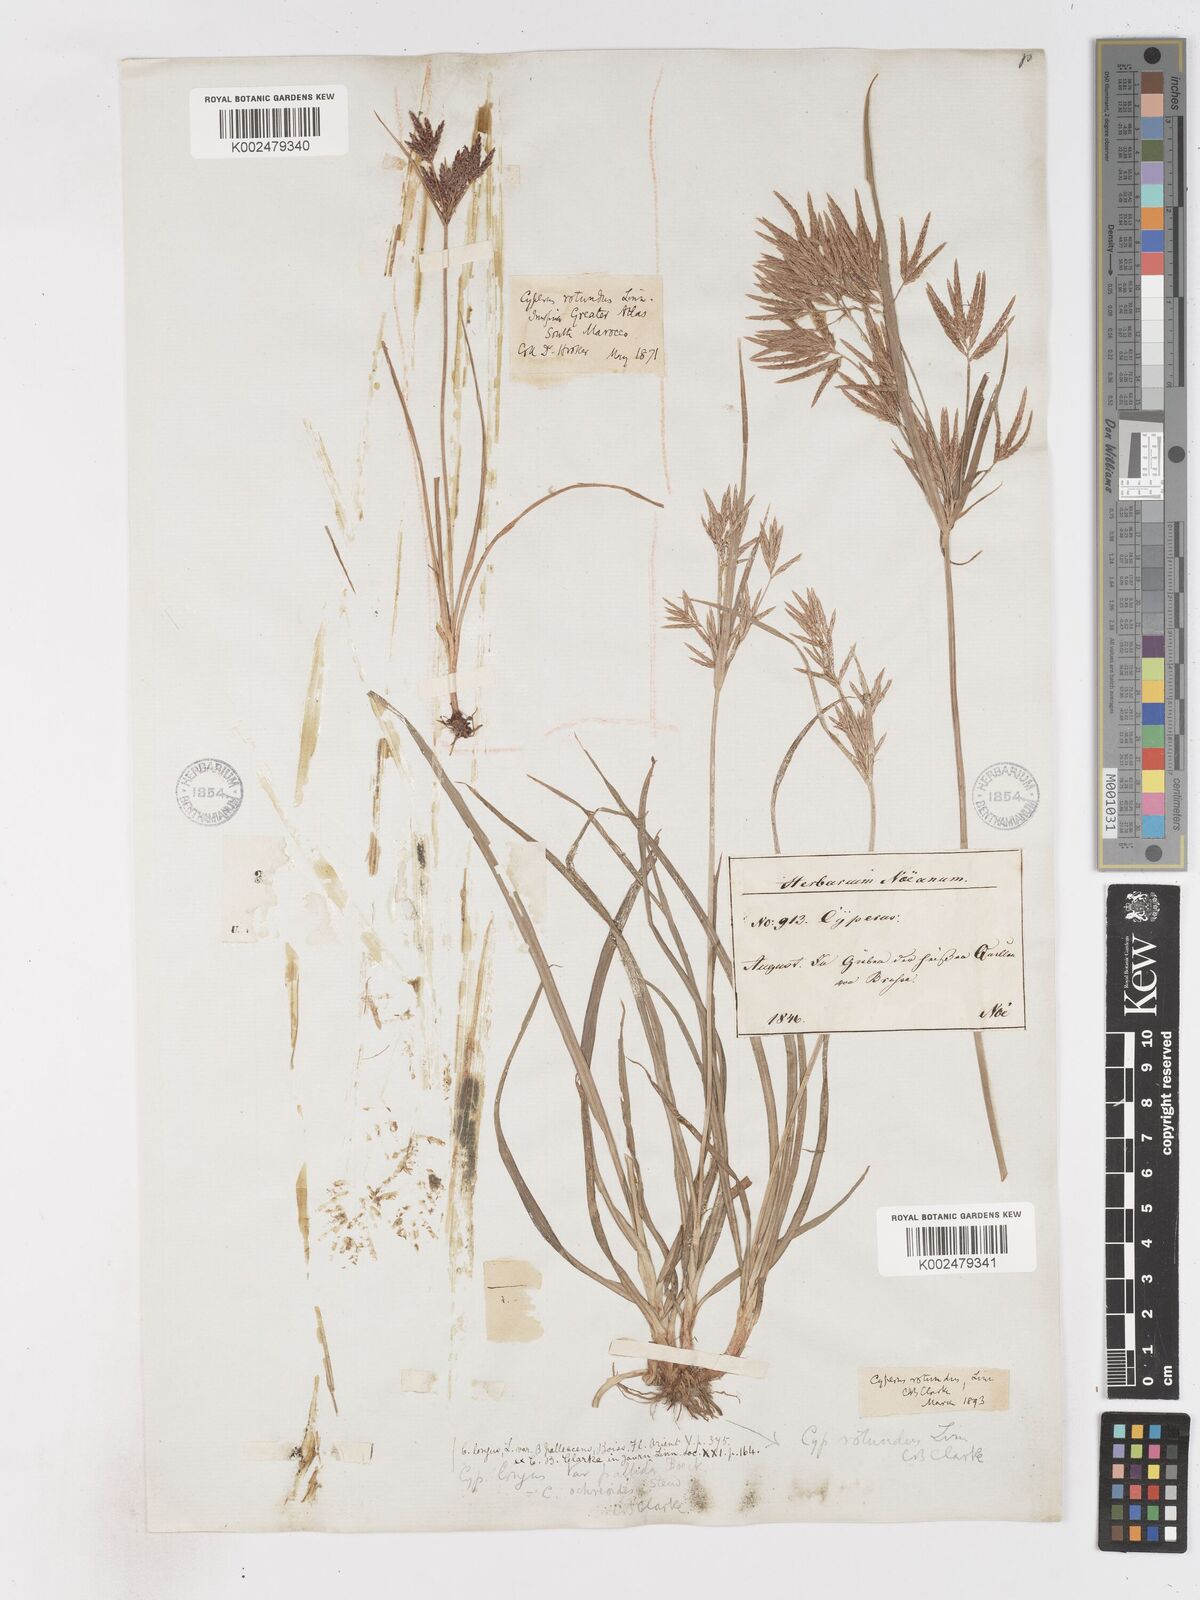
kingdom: Plantae
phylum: Tracheophyta
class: Liliopsida
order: Poales
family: Cyperaceae
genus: Cyperus
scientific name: Cyperus rotundus
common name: Nutgrass
